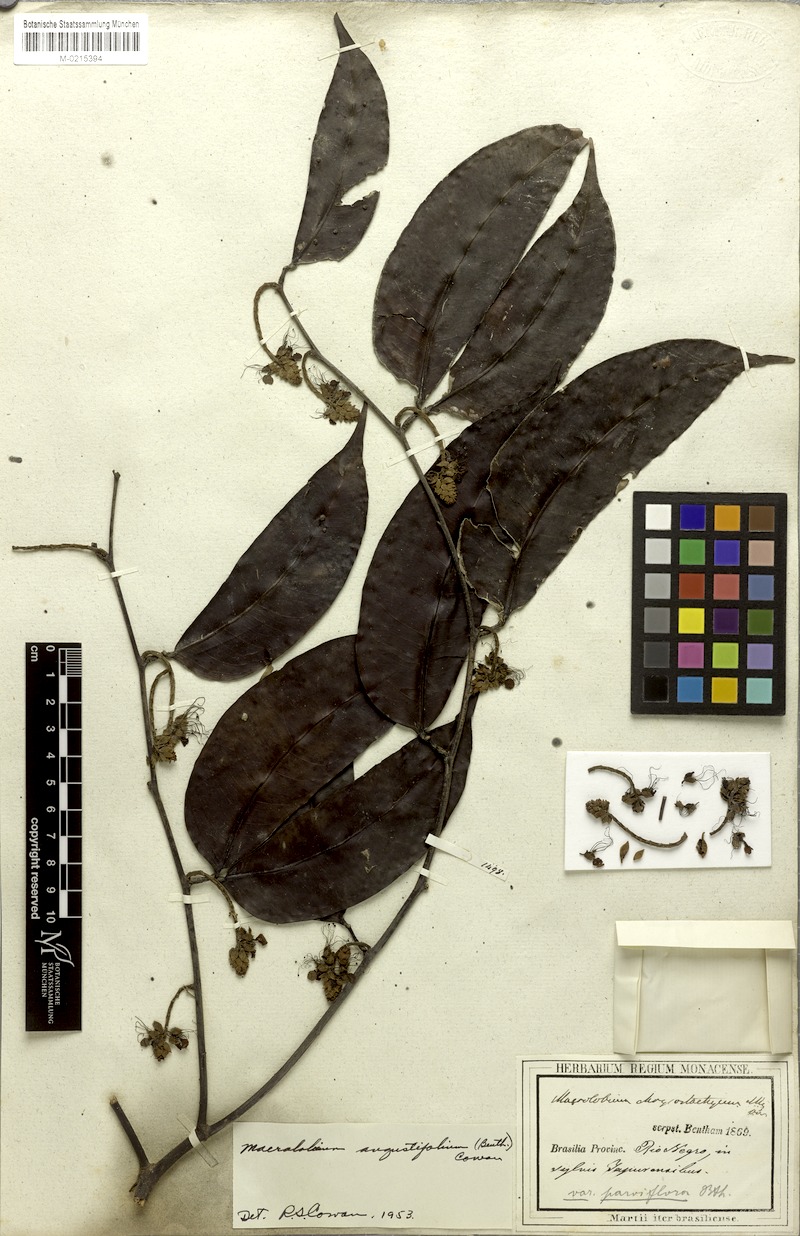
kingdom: Plantae
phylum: Tracheophyta
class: Magnoliopsida
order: Fabales
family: Fabaceae
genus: Macrolobium
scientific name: Macrolobium angustifolium
